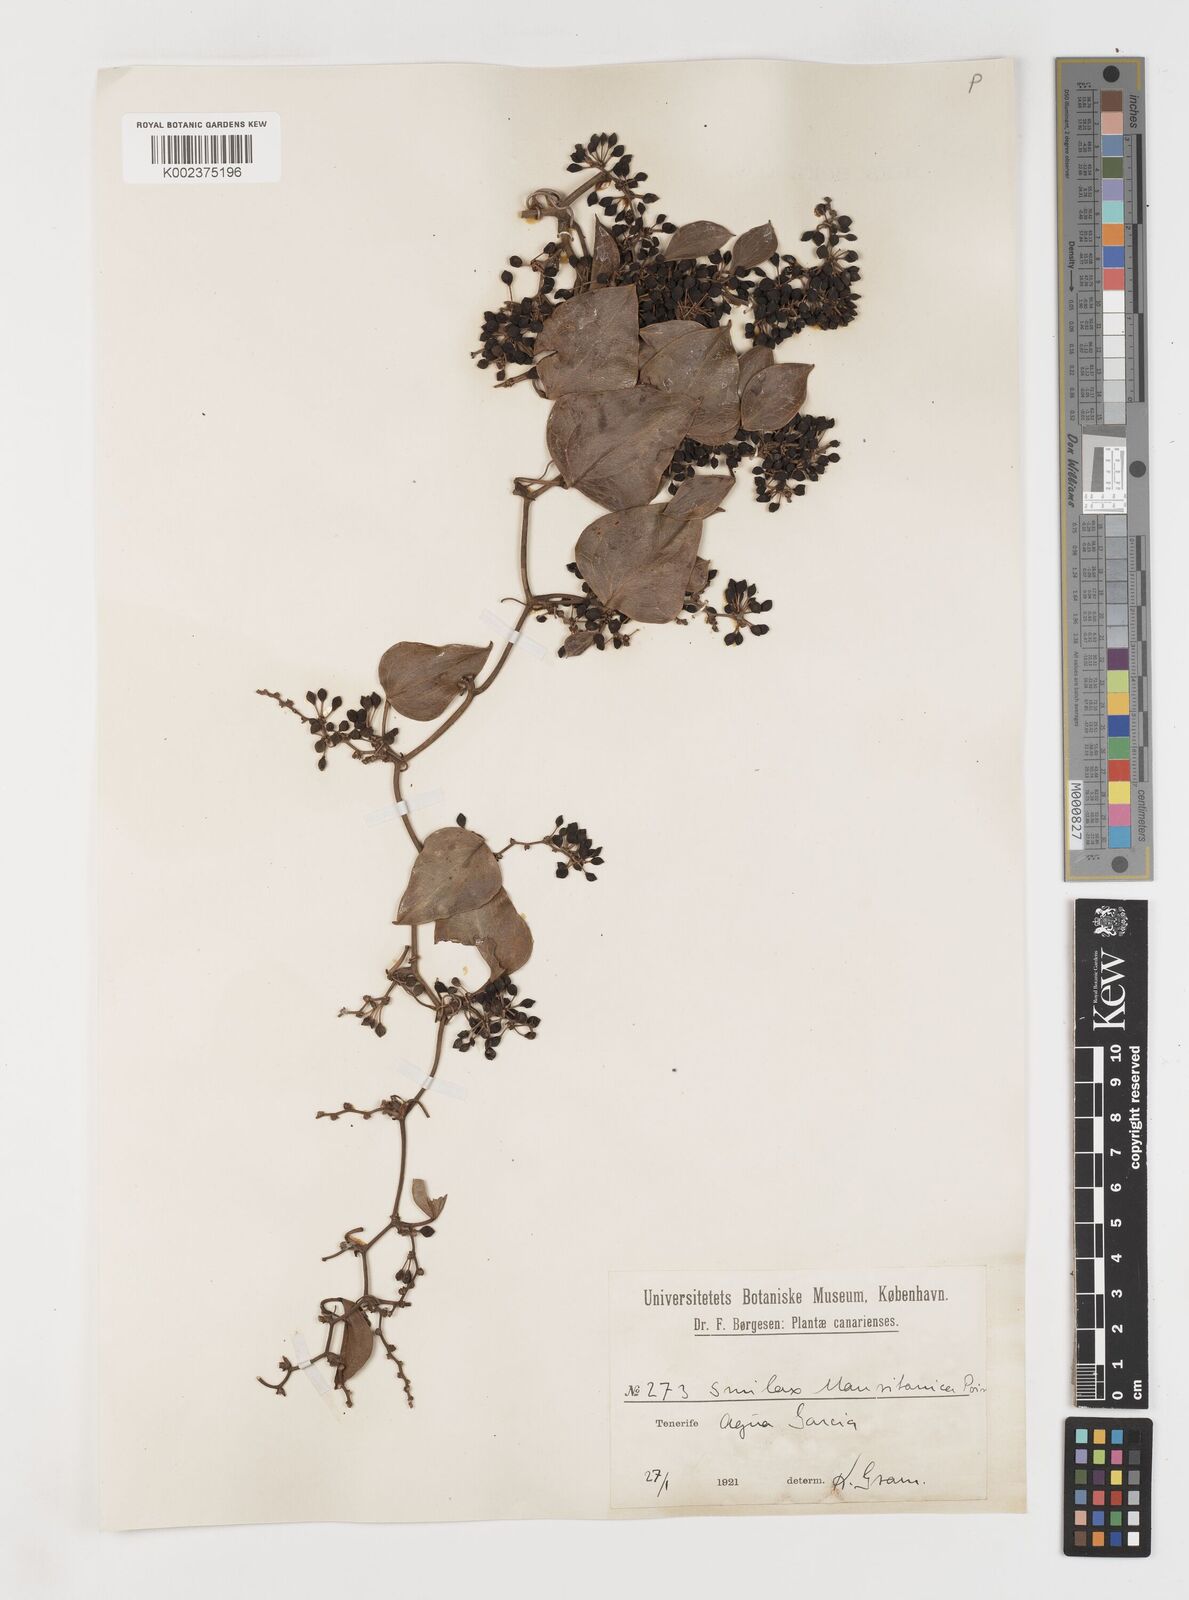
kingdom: Plantae
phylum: Tracheophyta
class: Liliopsida
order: Liliales
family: Smilacaceae
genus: Smilax
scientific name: Smilax aspera
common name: Common smilax
